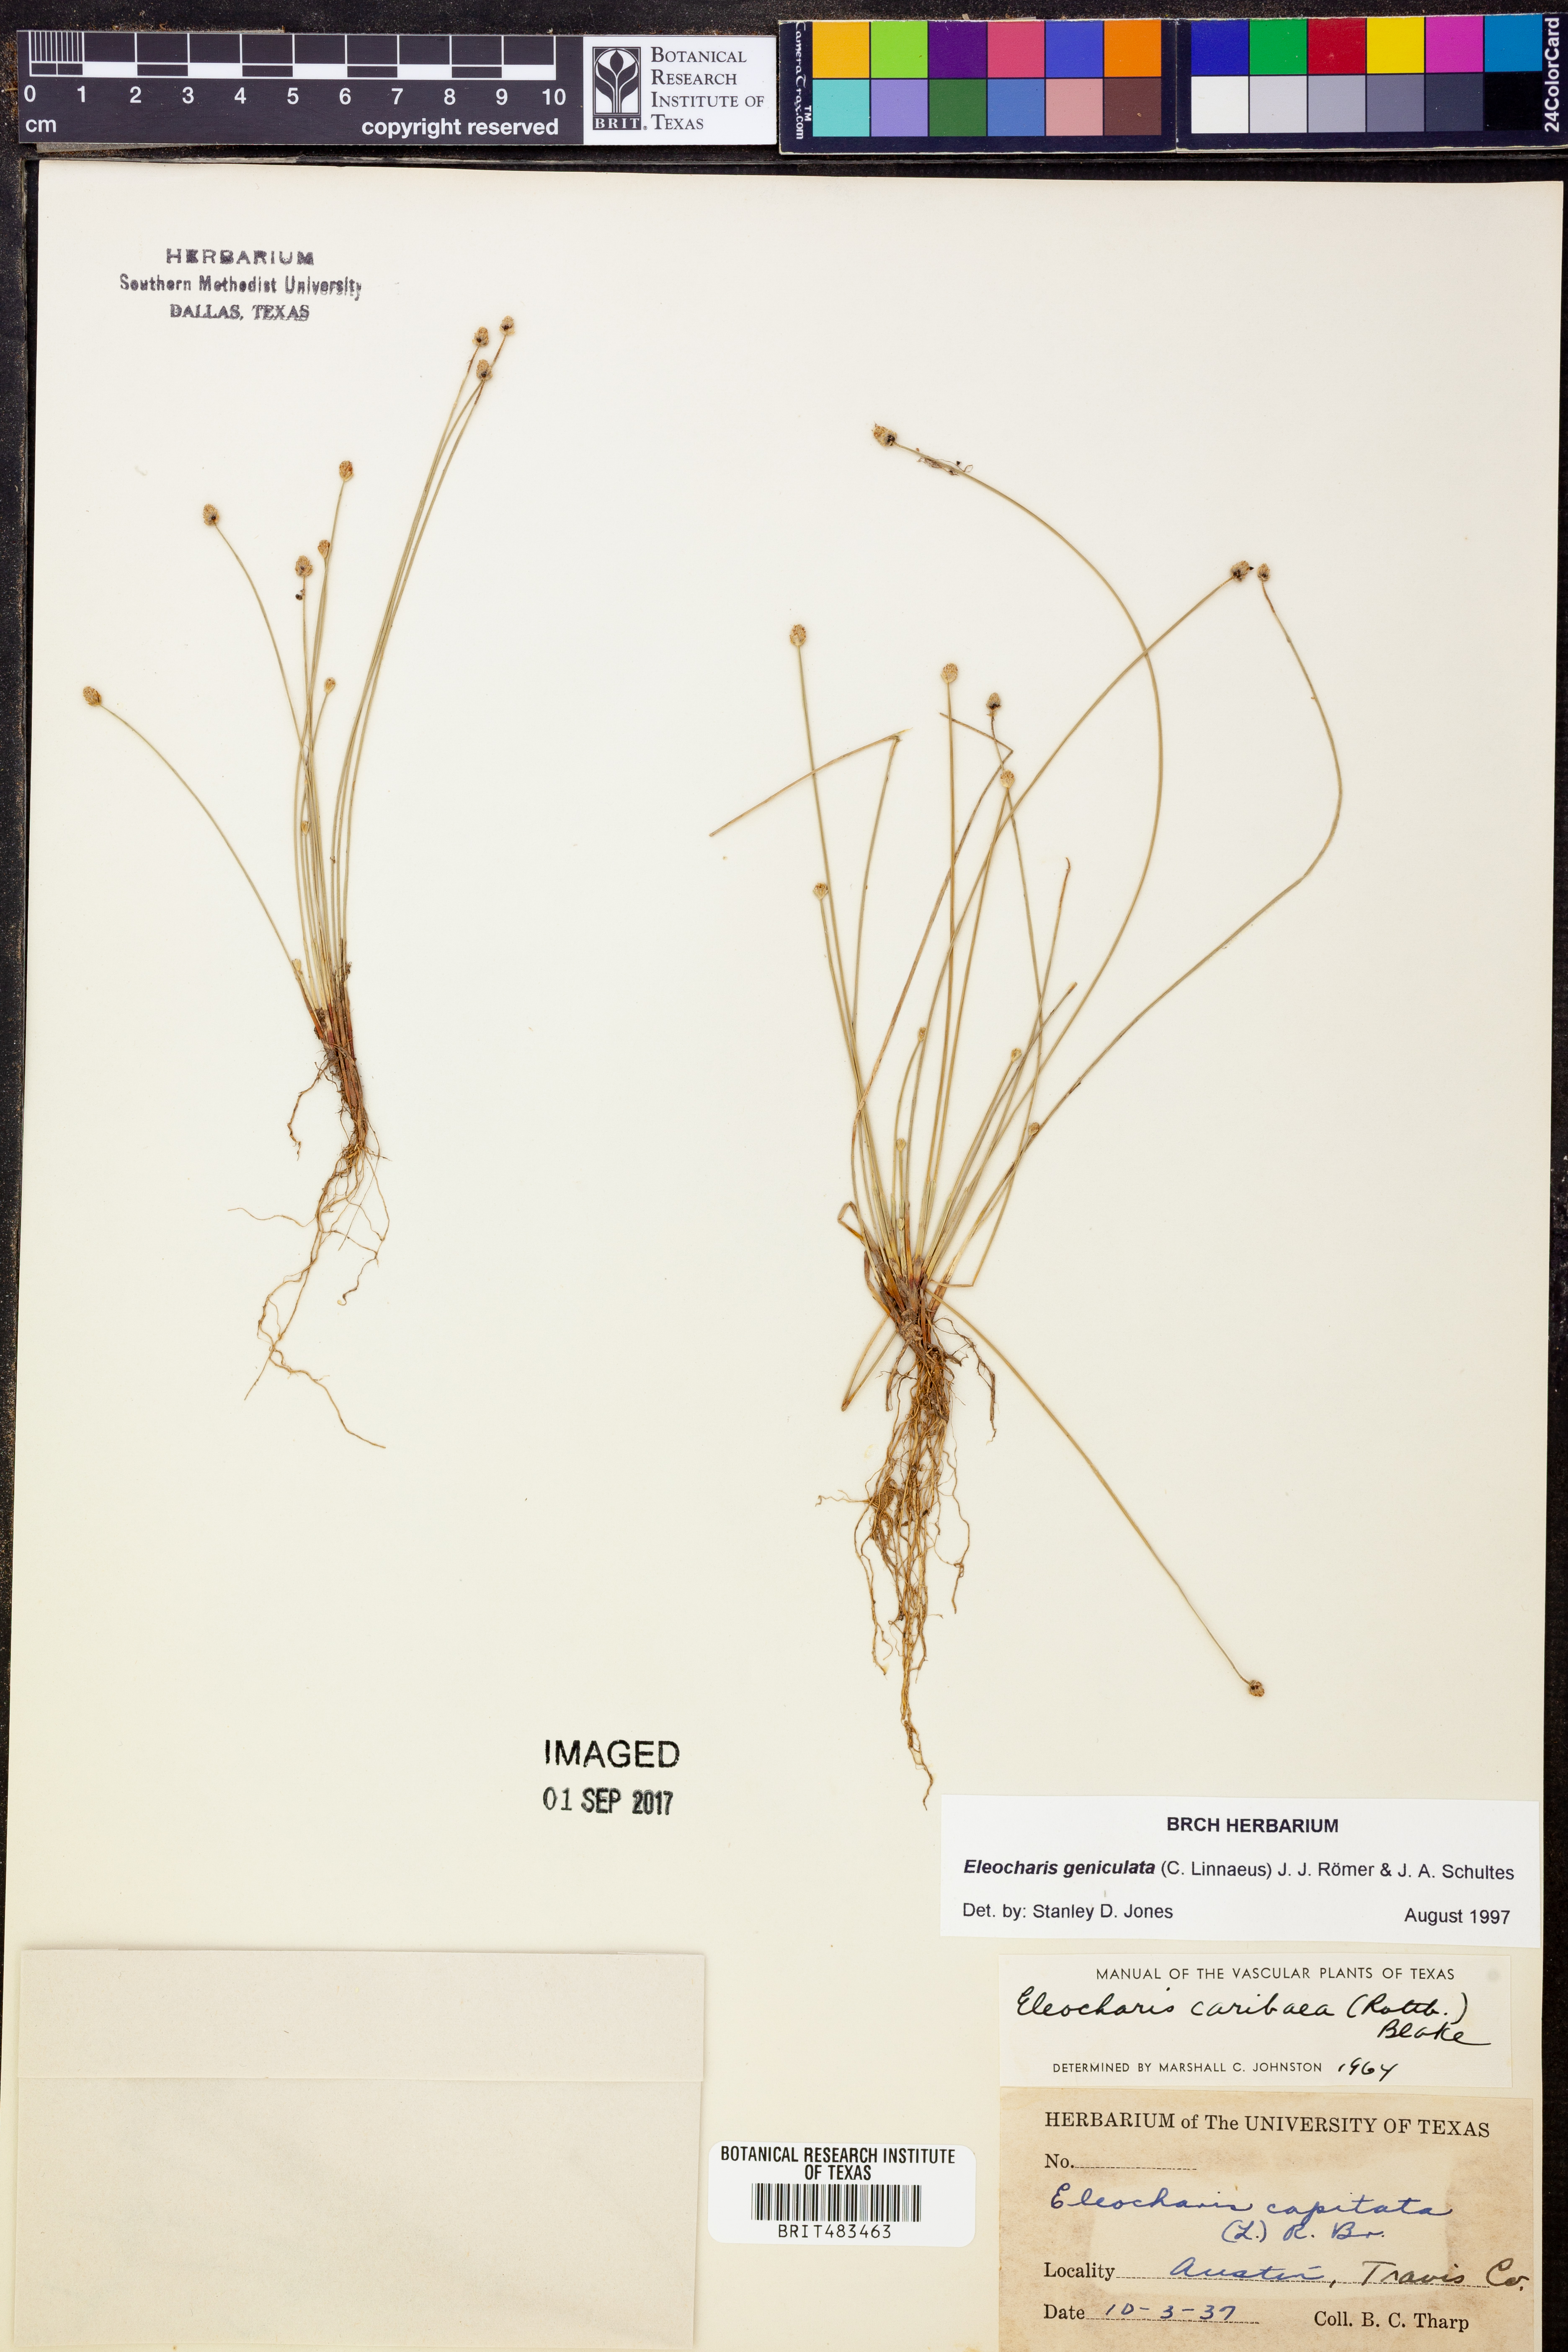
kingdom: Plantae
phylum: Tracheophyta
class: Liliopsida
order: Poales
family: Cyperaceae
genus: Eleocharis
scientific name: Eleocharis geniculata
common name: Canada spikesedge
